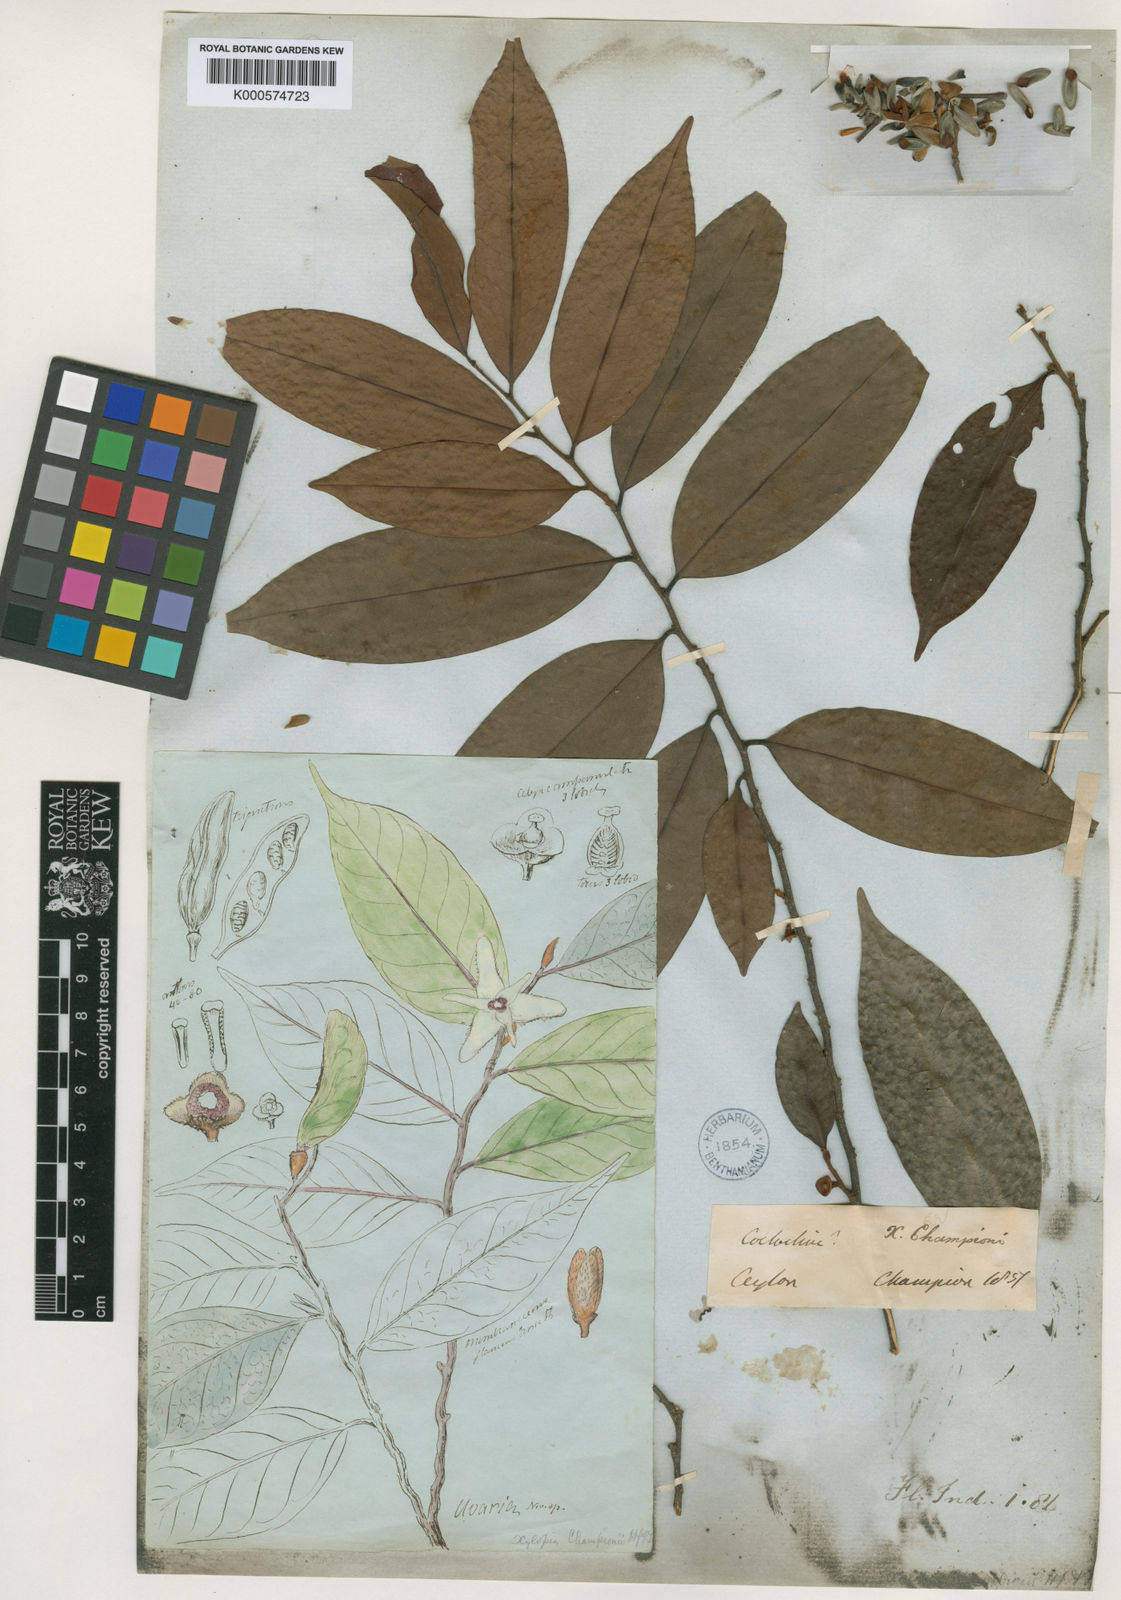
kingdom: Plantae
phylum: Tracheophyta
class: Magnoliopsida
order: Magnoliales
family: Annonaceae
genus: Xylopia
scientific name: Xylopia championii
